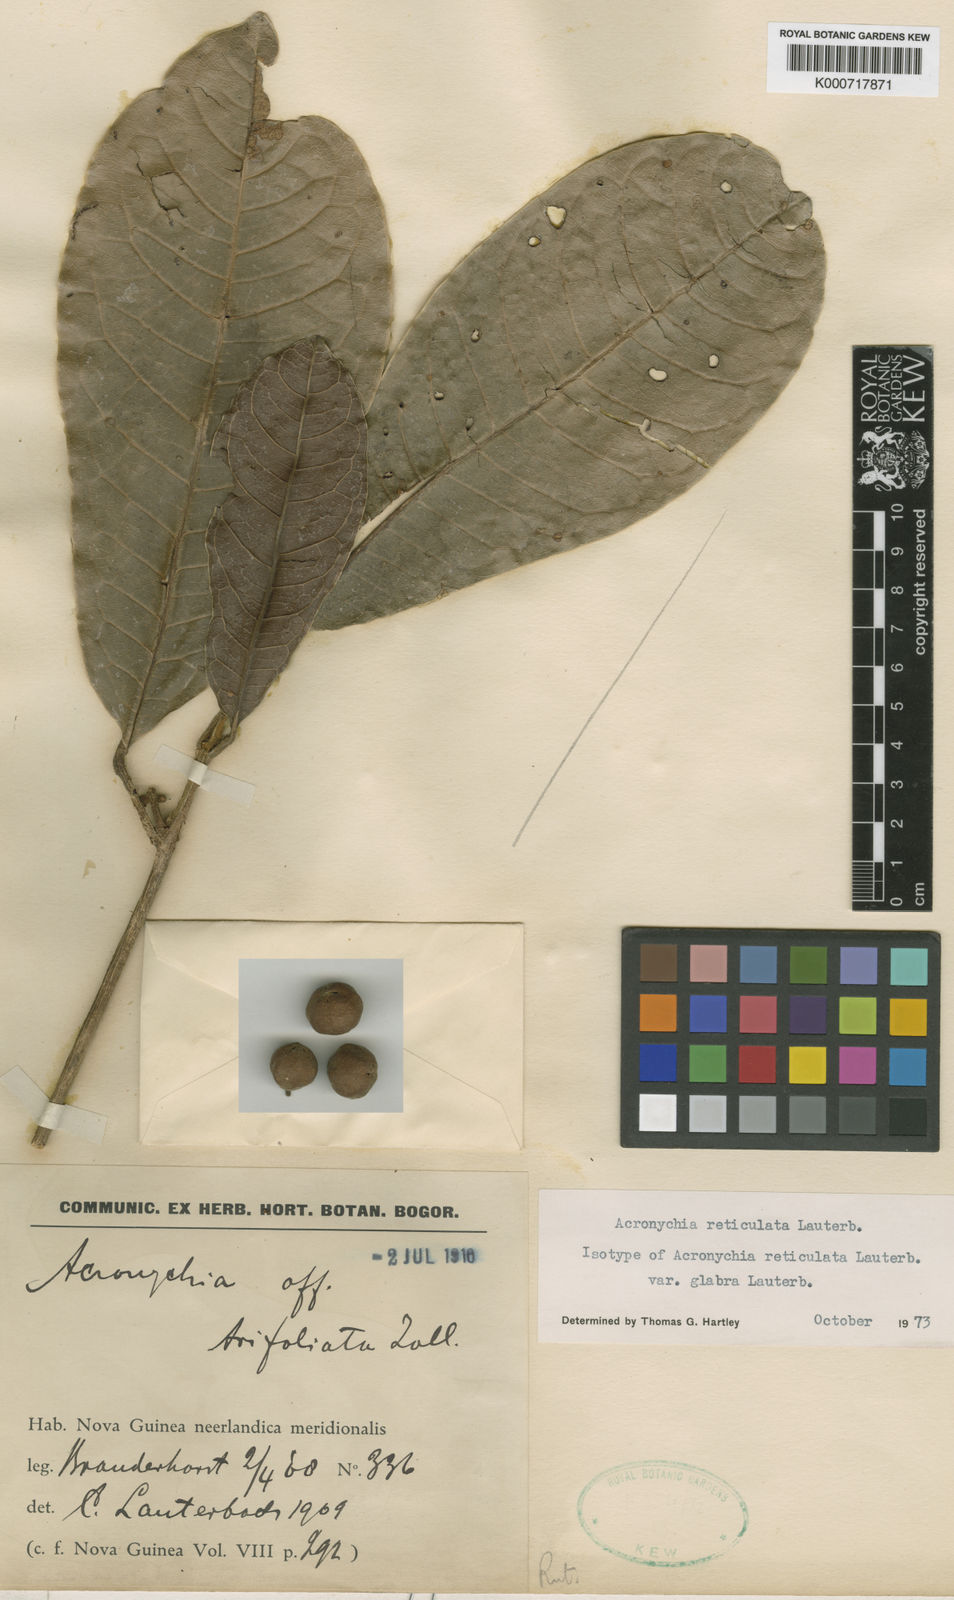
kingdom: Plantae
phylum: Tracheophyta
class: Magnoliopsida
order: Sapindales
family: Rutaceae
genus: Acronychia
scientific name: Acronychia reticulata
